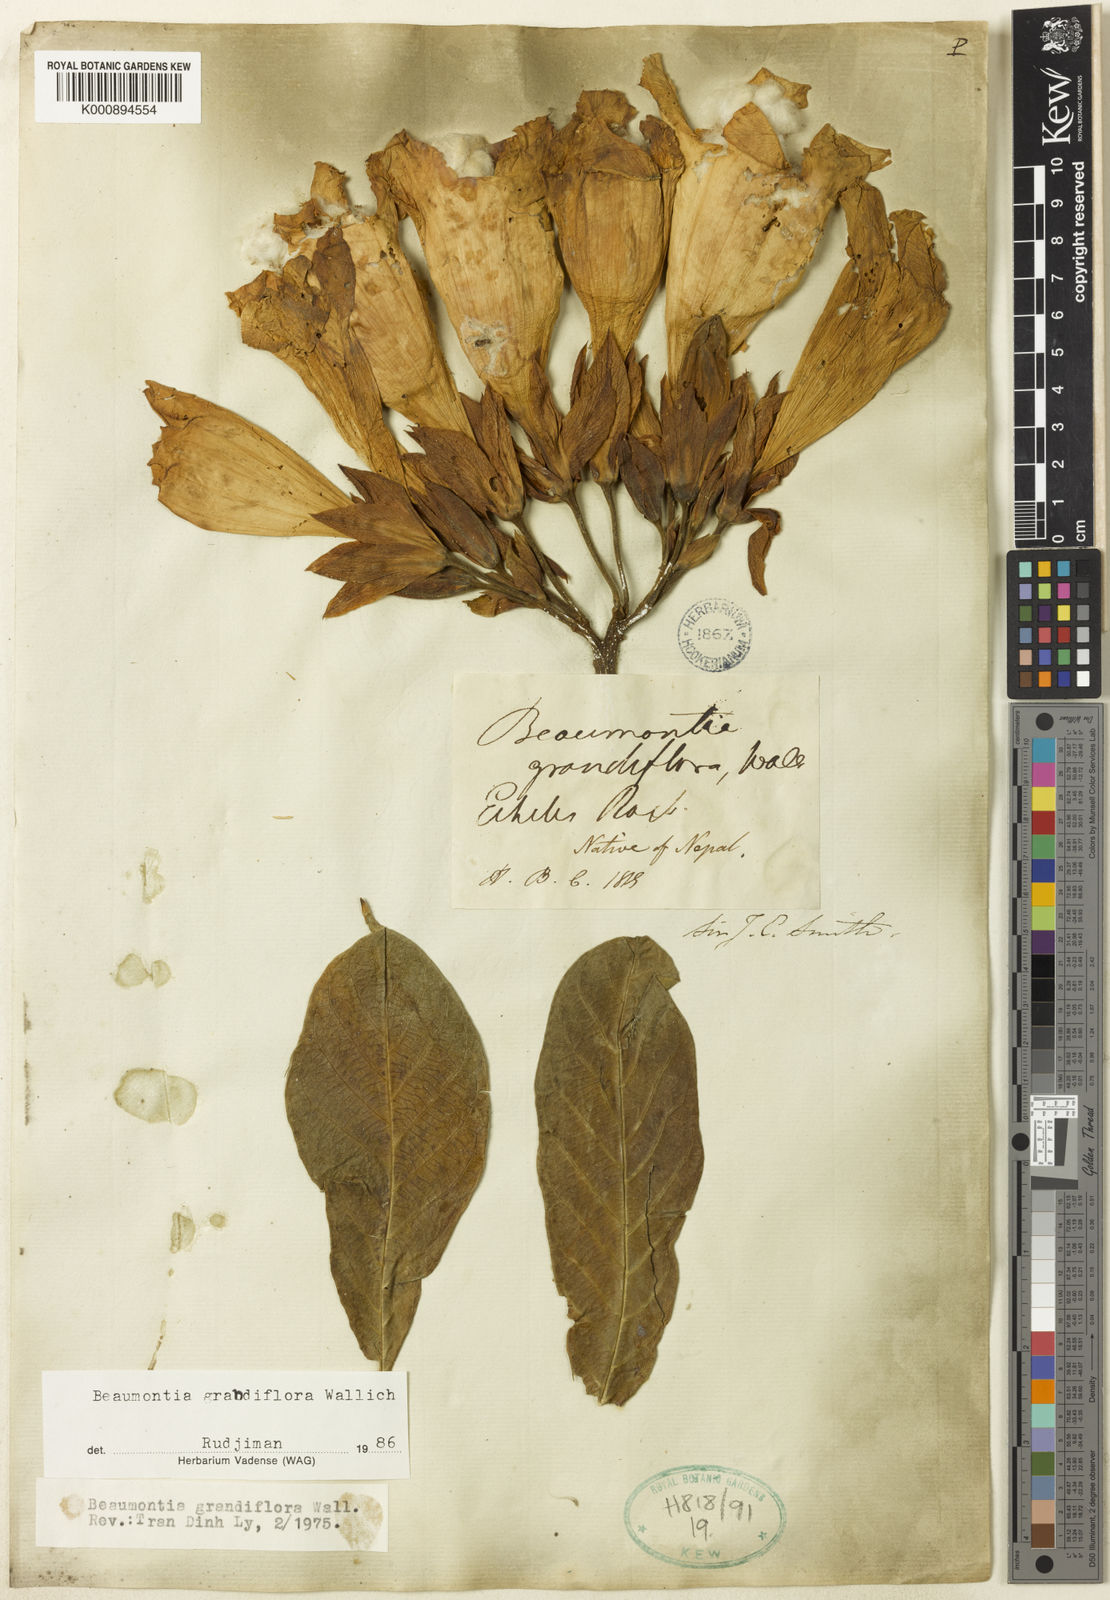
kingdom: Plantae
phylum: Tracheophyta
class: Magnoliopsida
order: Gentianales
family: Apocynaceae
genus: Beaumontia
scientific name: Beaumontia grandiflora
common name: Easter-lily-vine
